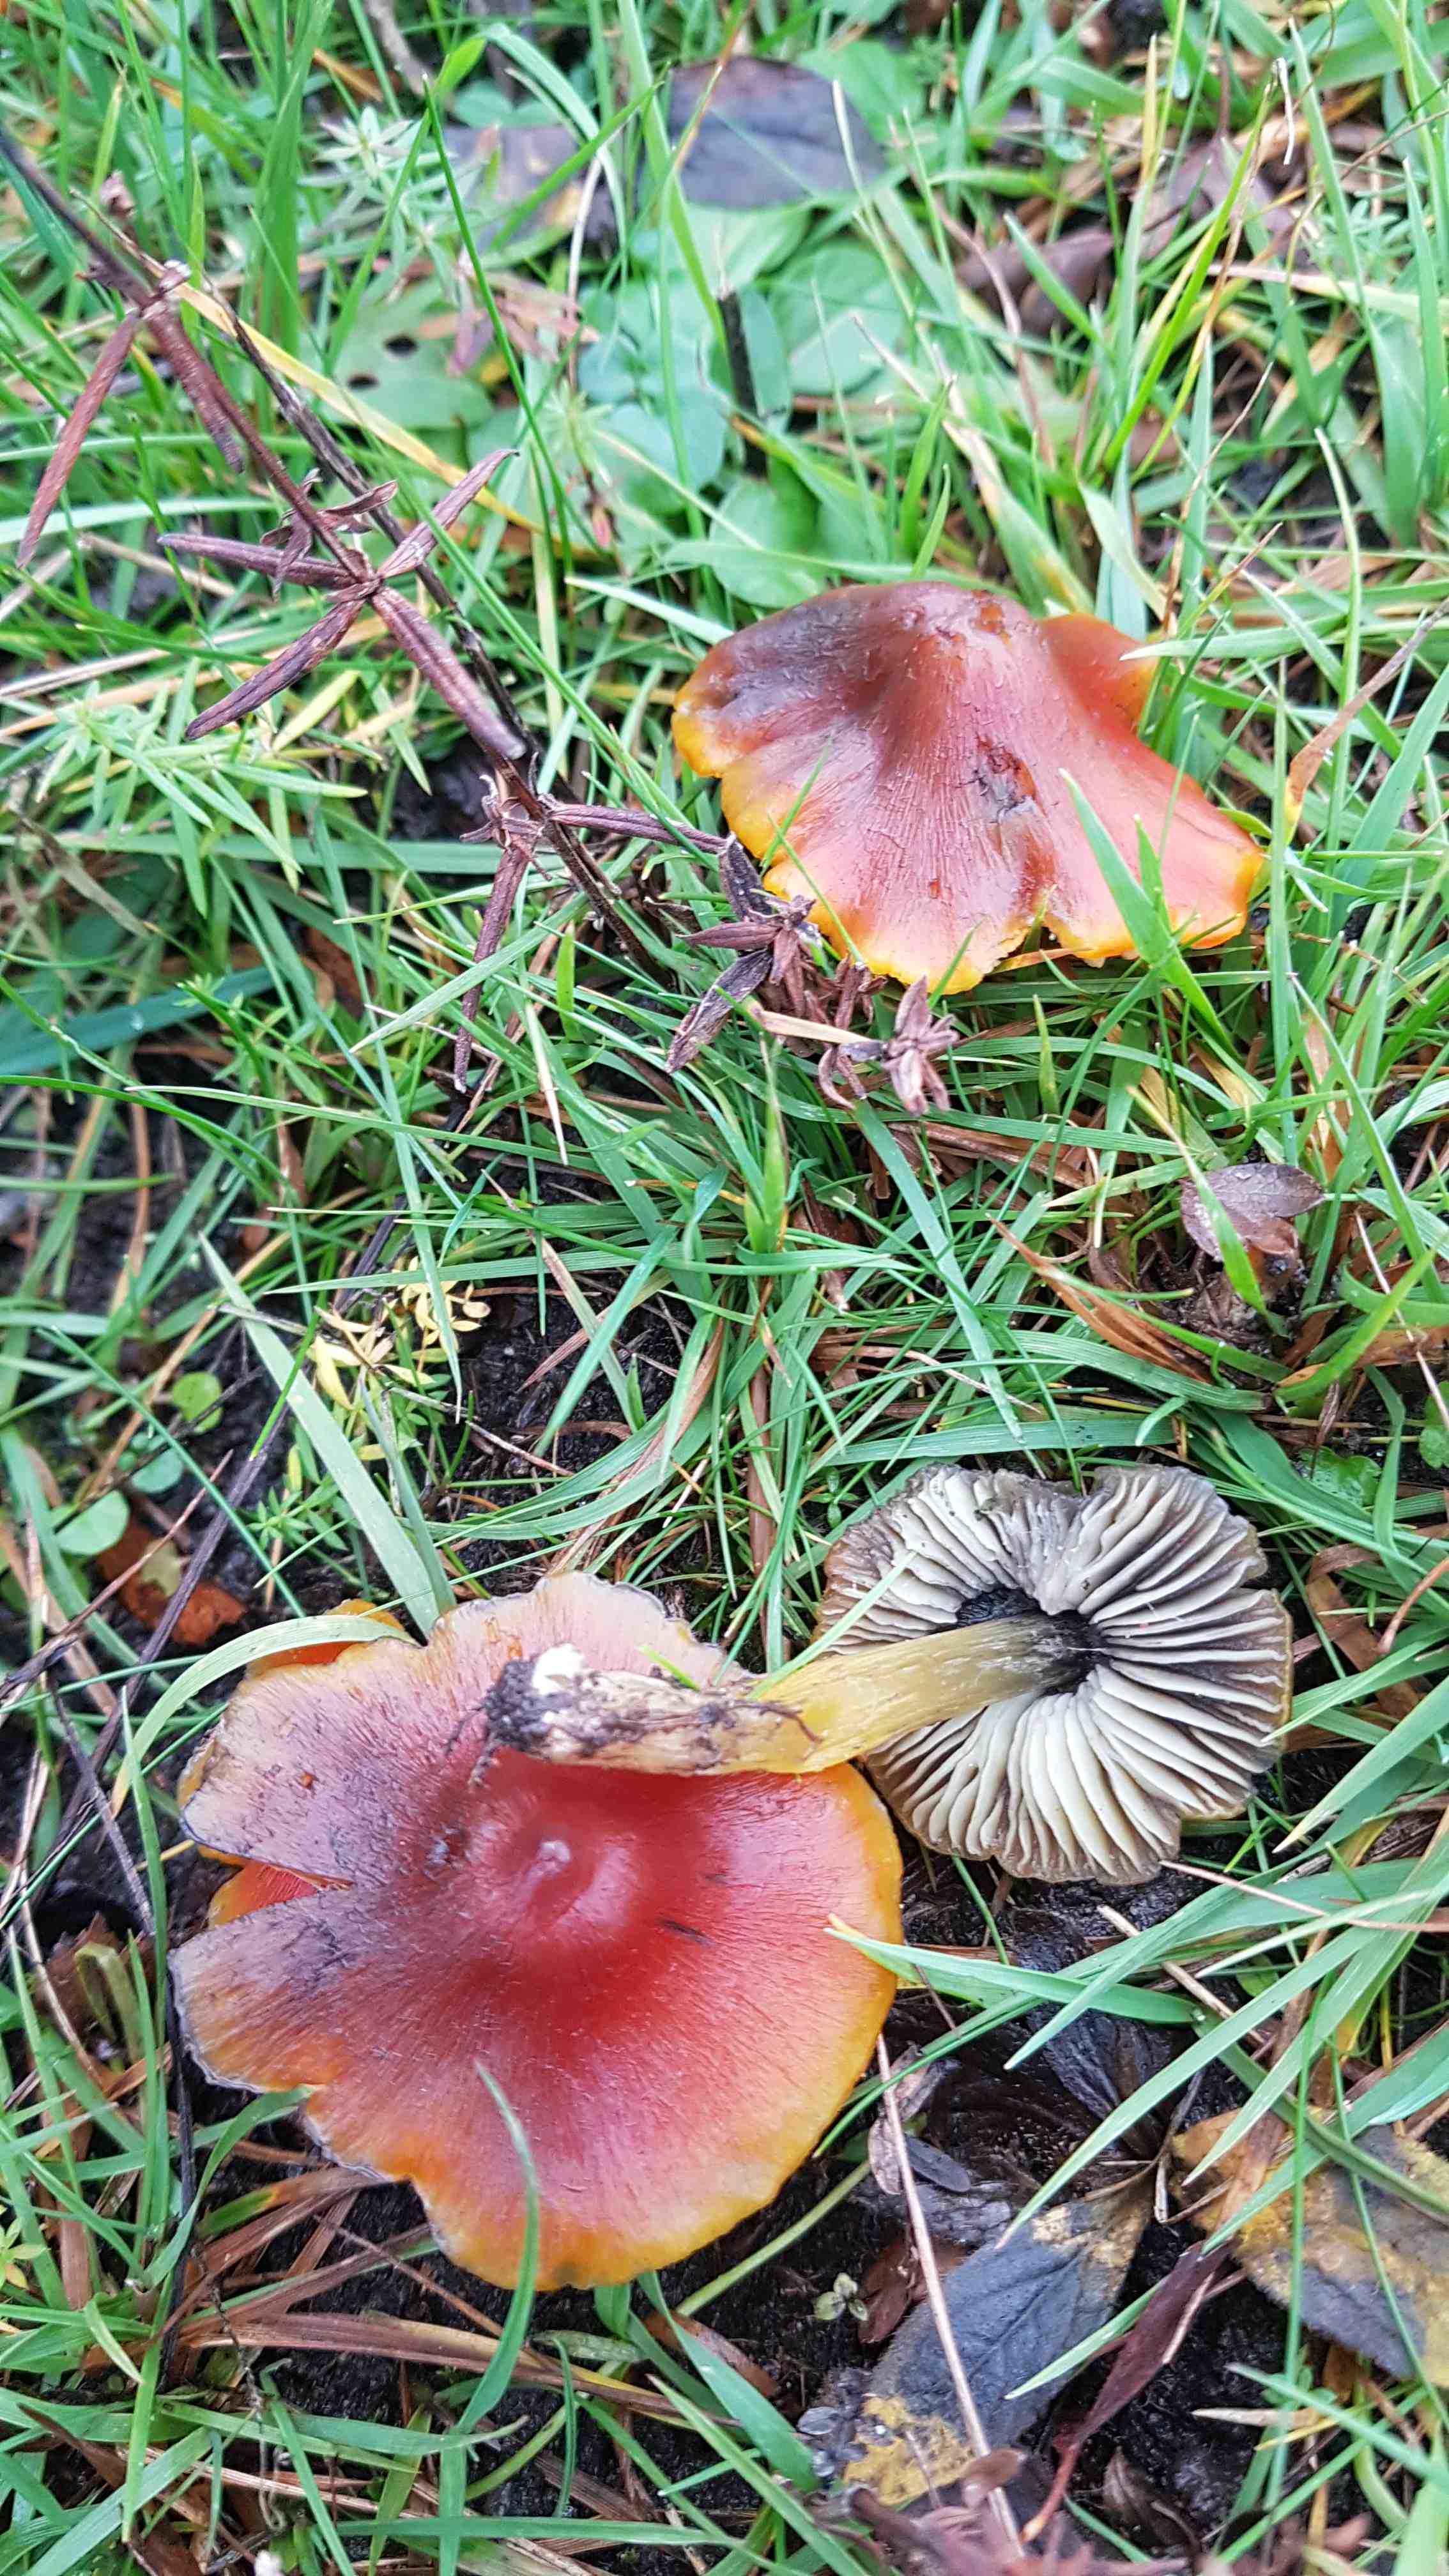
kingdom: Fungi
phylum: Basidiomycota
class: Agaricomycetes
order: Agaricales
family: Hygrophoraceae
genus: Hygrocybe
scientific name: Hygrocybe conica
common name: kegle-vokshat
